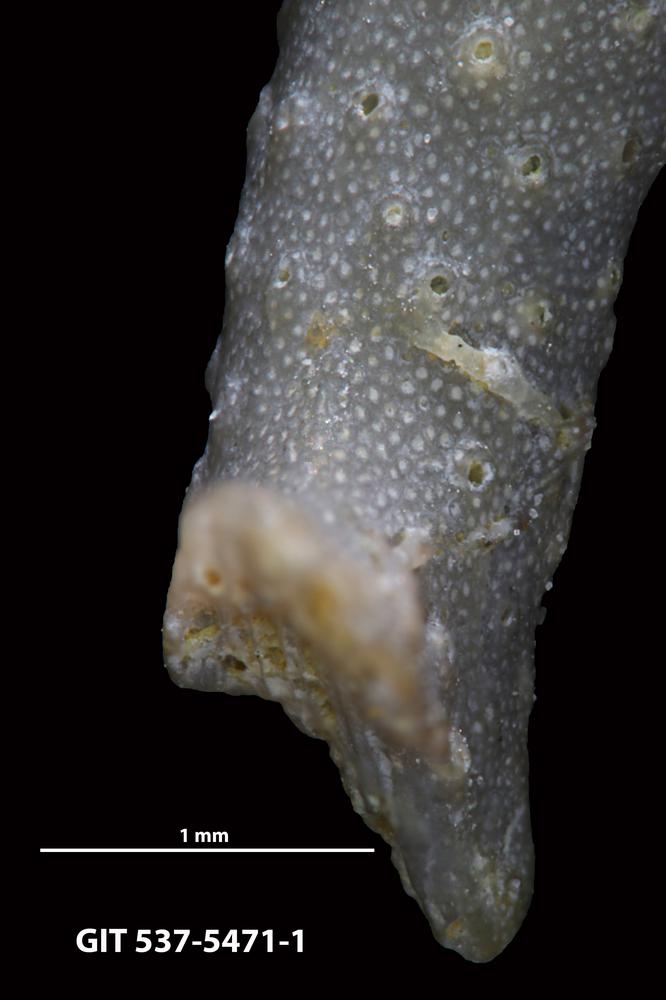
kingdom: Animalia
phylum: Bryozoa
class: Stenolaemata
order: Cyclostomatida
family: Corynotrypidae
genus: Corynotrypa
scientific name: Corynotrypa
